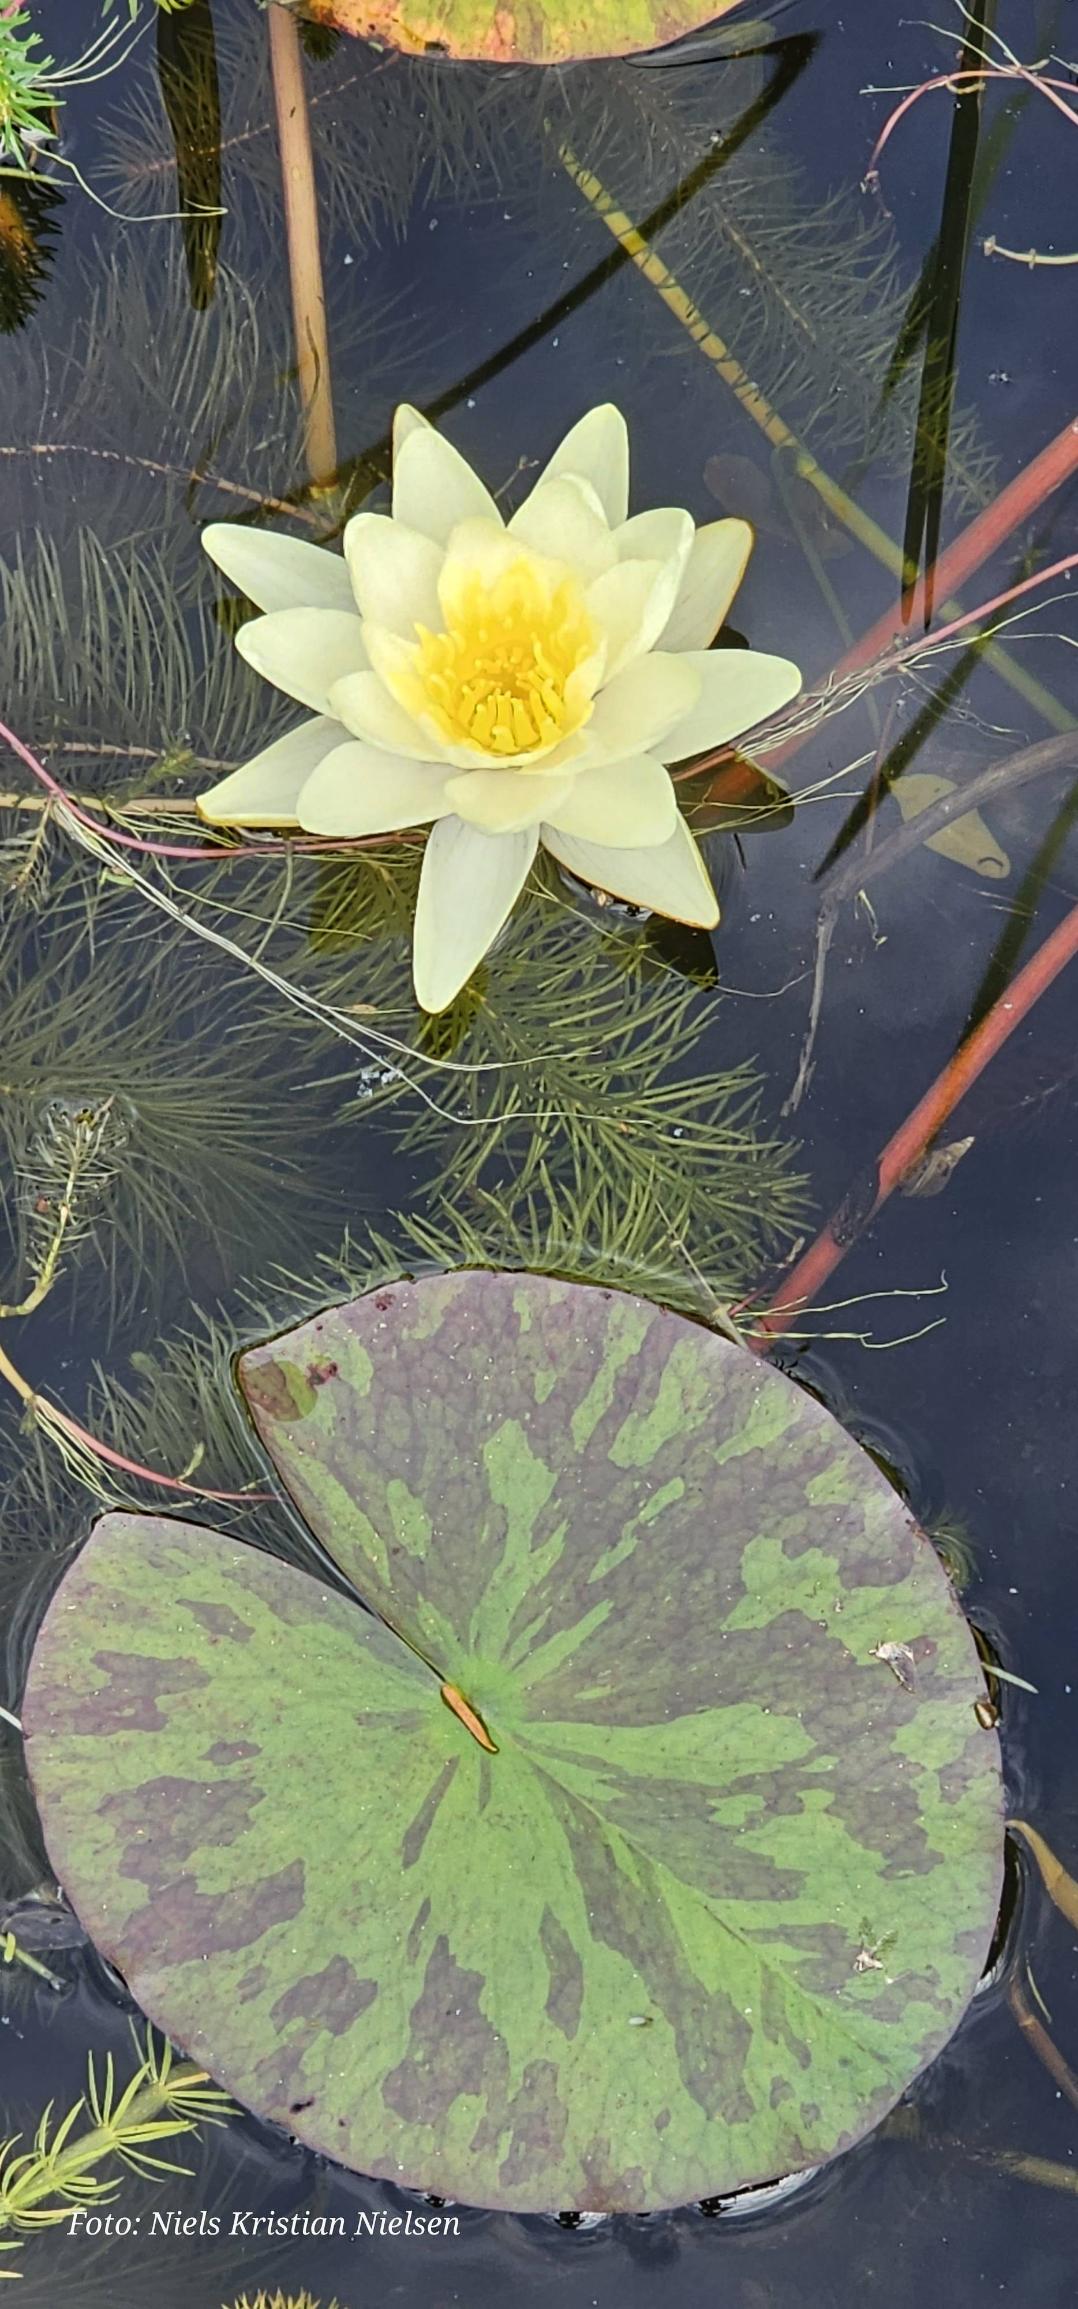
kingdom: Plantae
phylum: Tracheophyta
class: Magnoliopsida
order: Nymphaeales
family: Nymphaeaceae
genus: Nymphaea
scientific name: Nymphaea
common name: Nøkkeroseslægten
